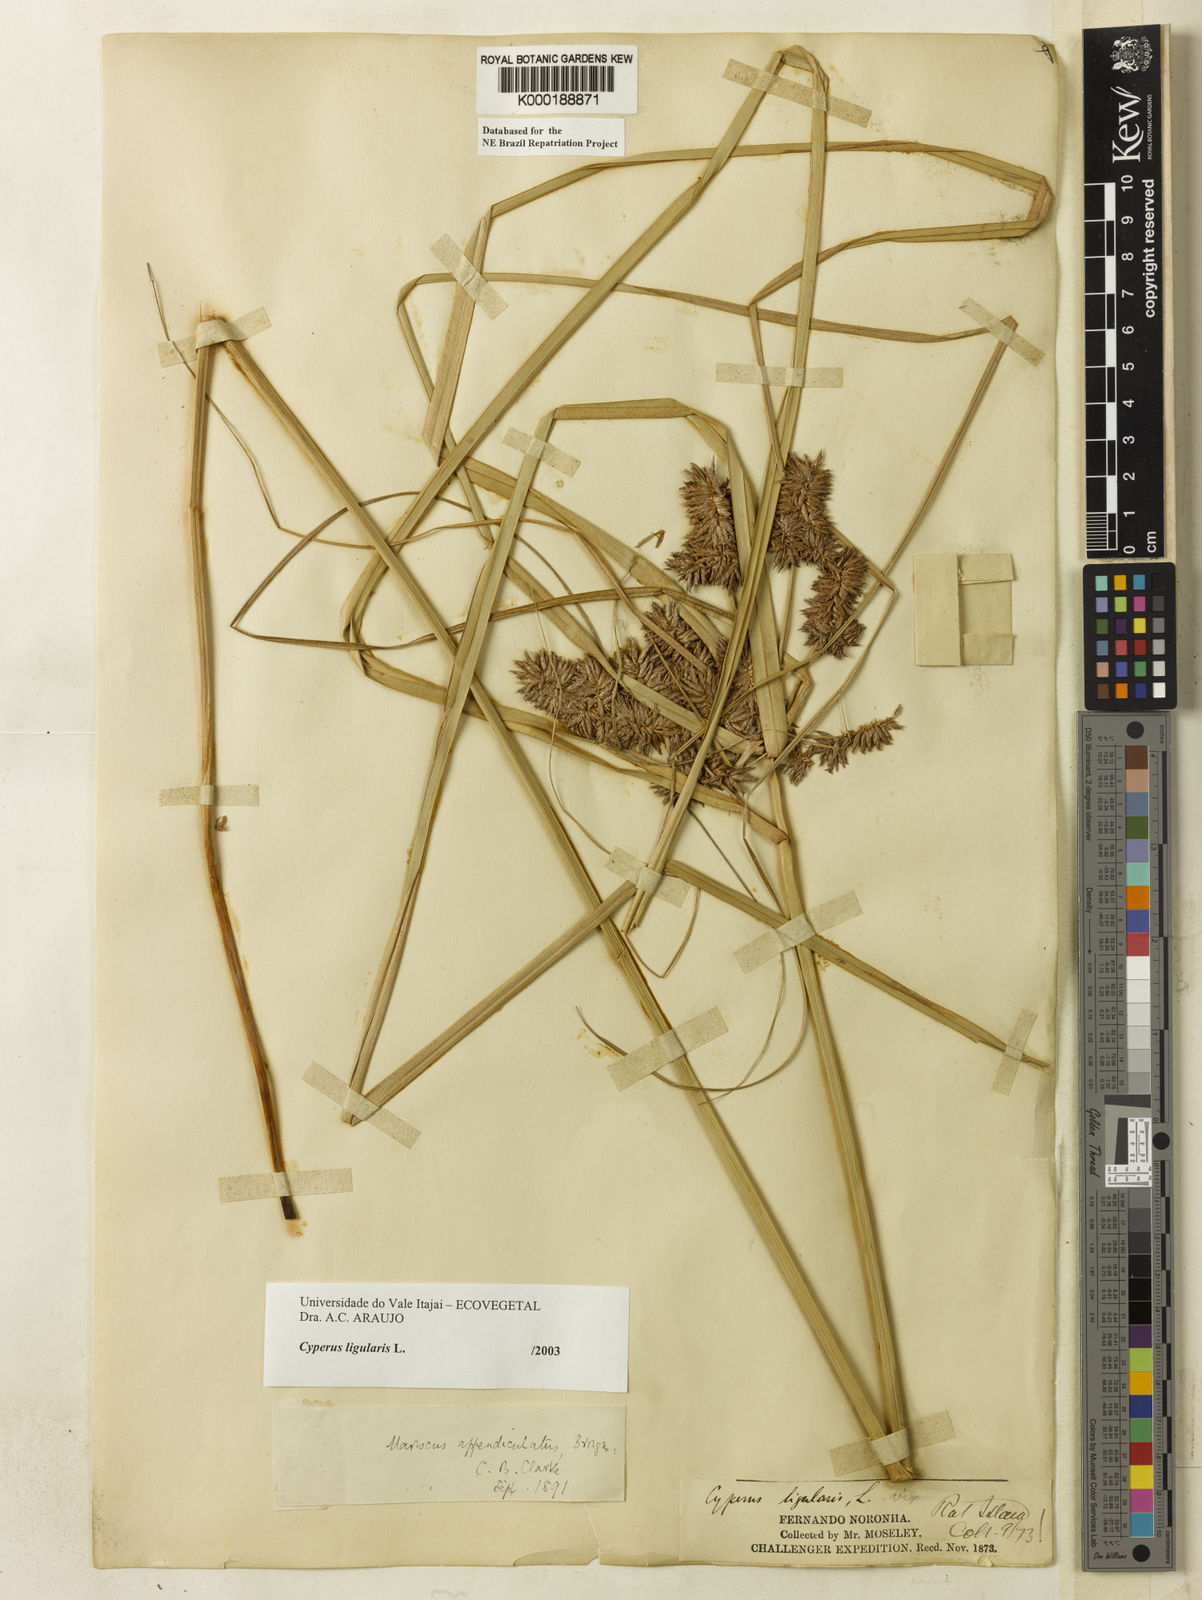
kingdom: Plantae
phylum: Tracheophyta
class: Liliopsida
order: Poales
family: Cyperaceae
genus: Cyperus
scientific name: Cyperus ligularis
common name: Swamp flat sedge
